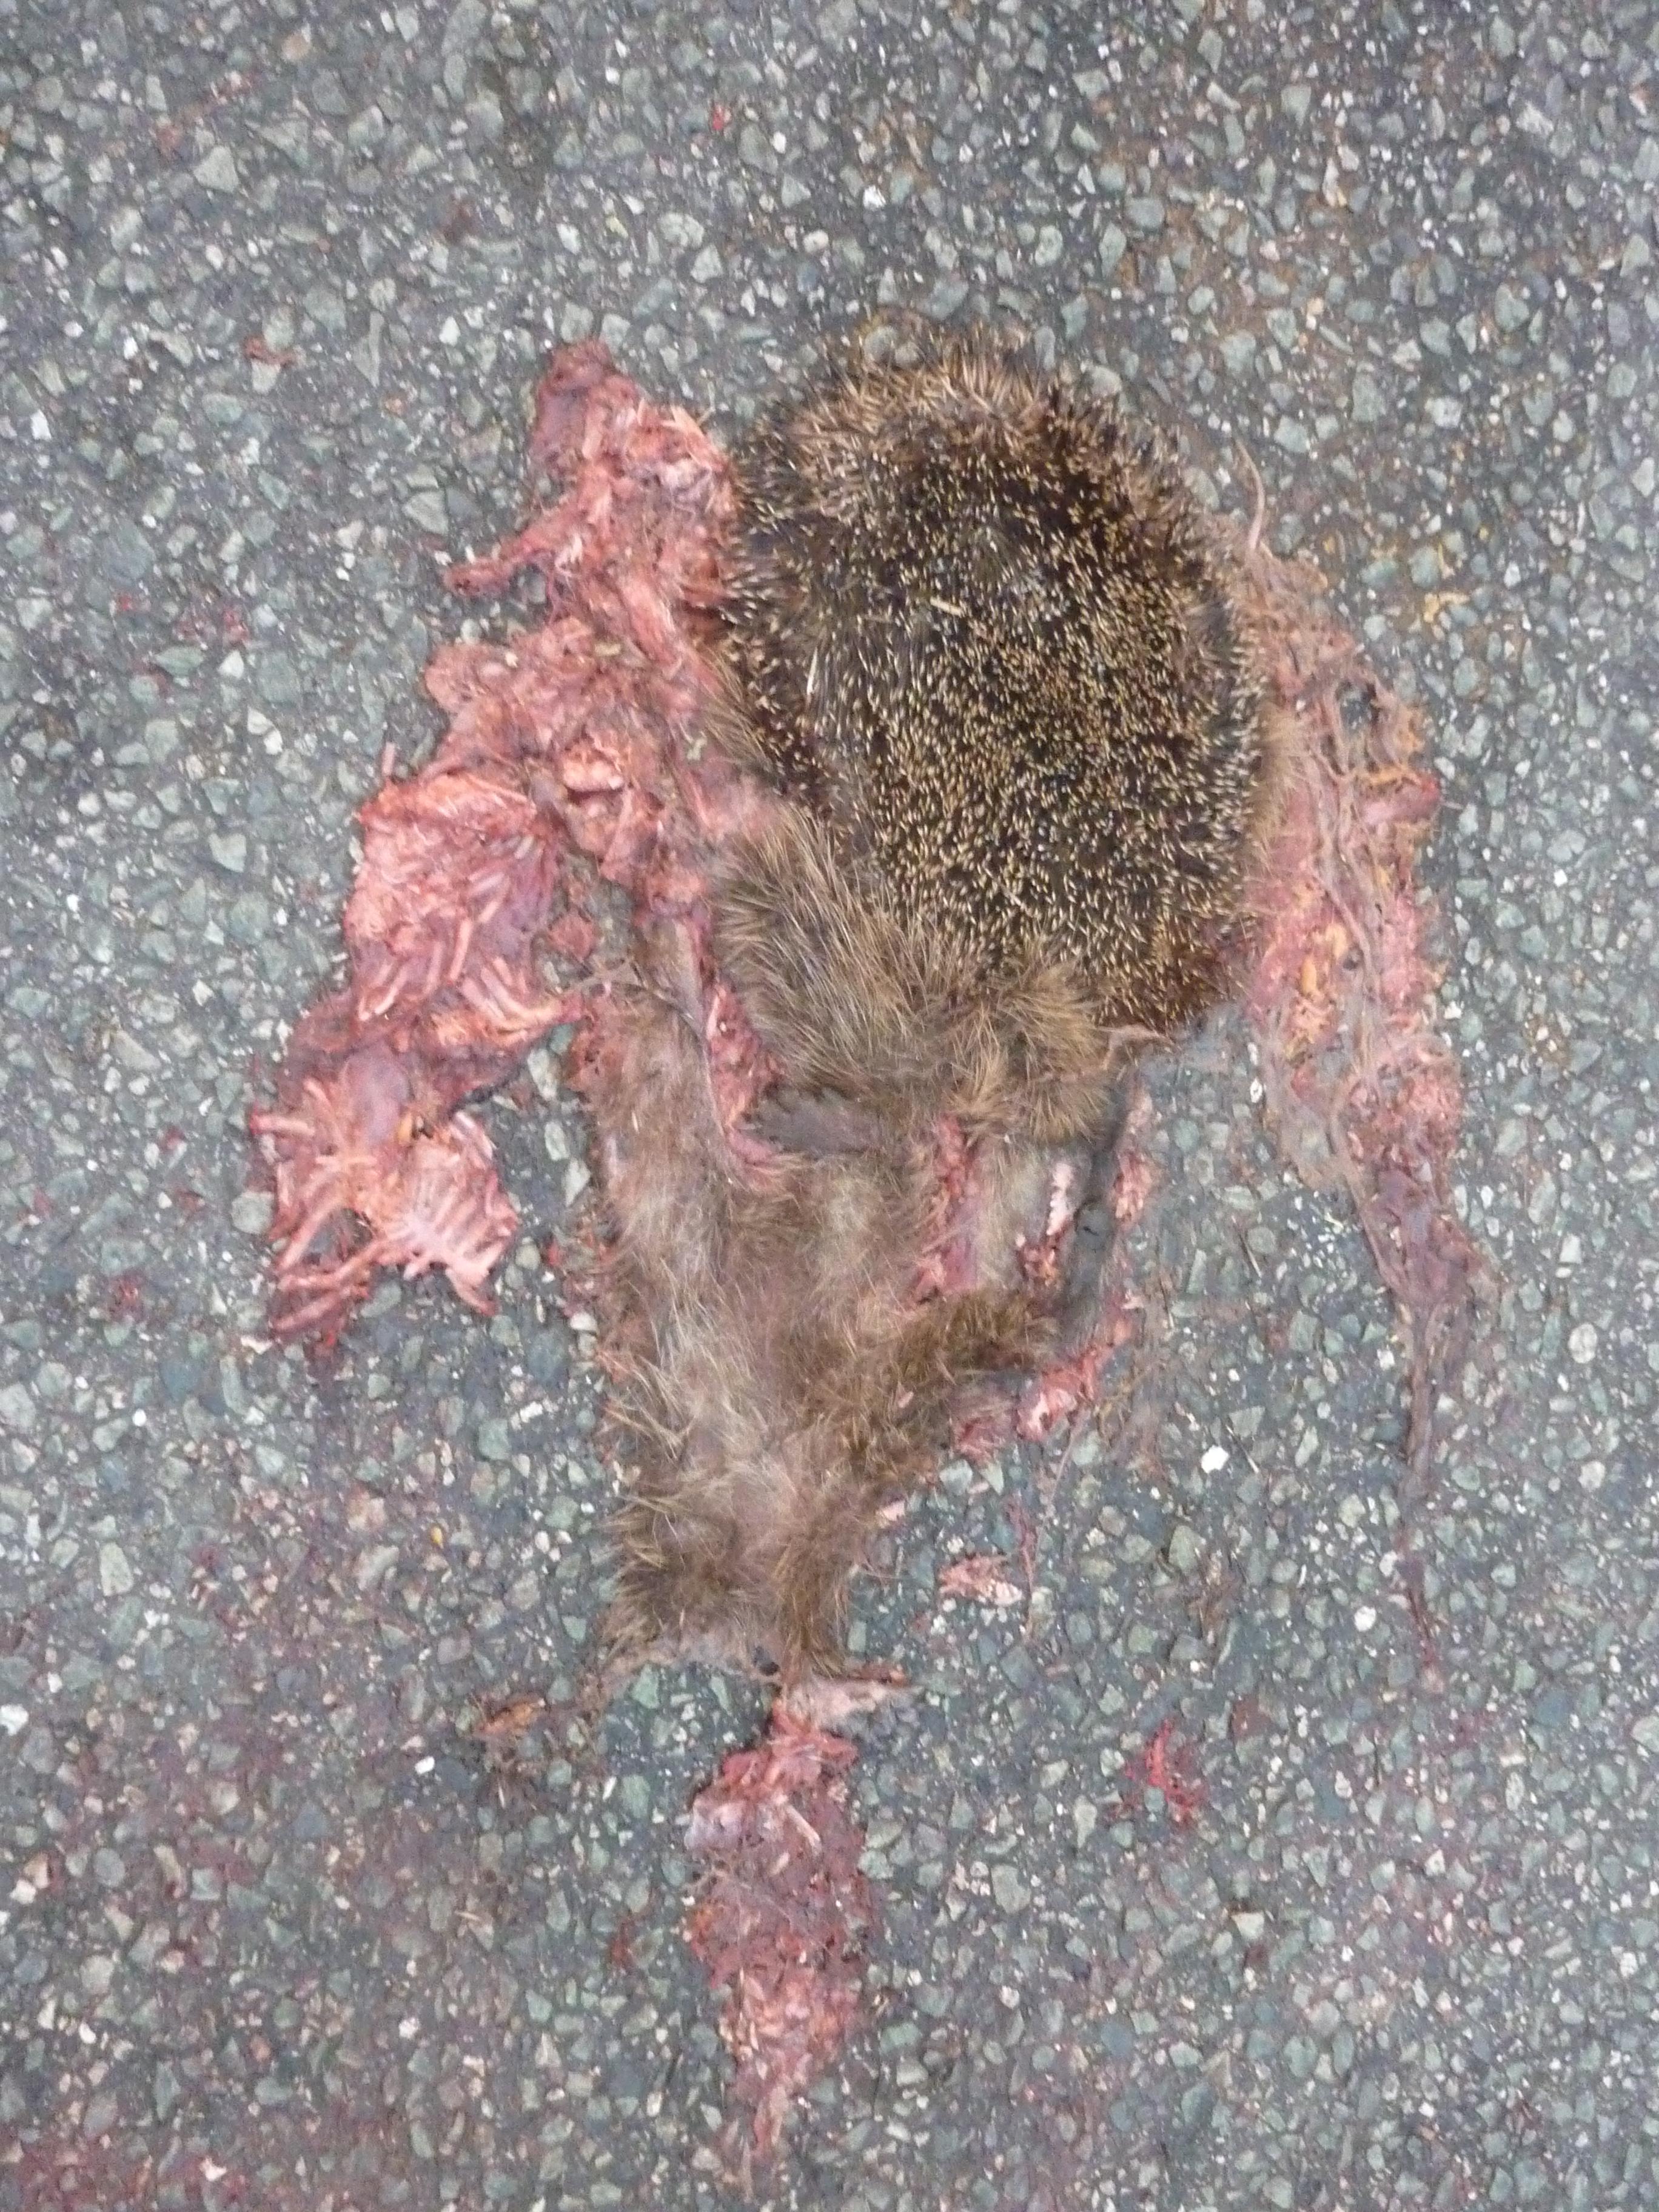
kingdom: Animalia
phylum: Chordata
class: Mammalia
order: Erinaceomorpha
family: Erinaceidae
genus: Erinaceus
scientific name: Erinaceus
